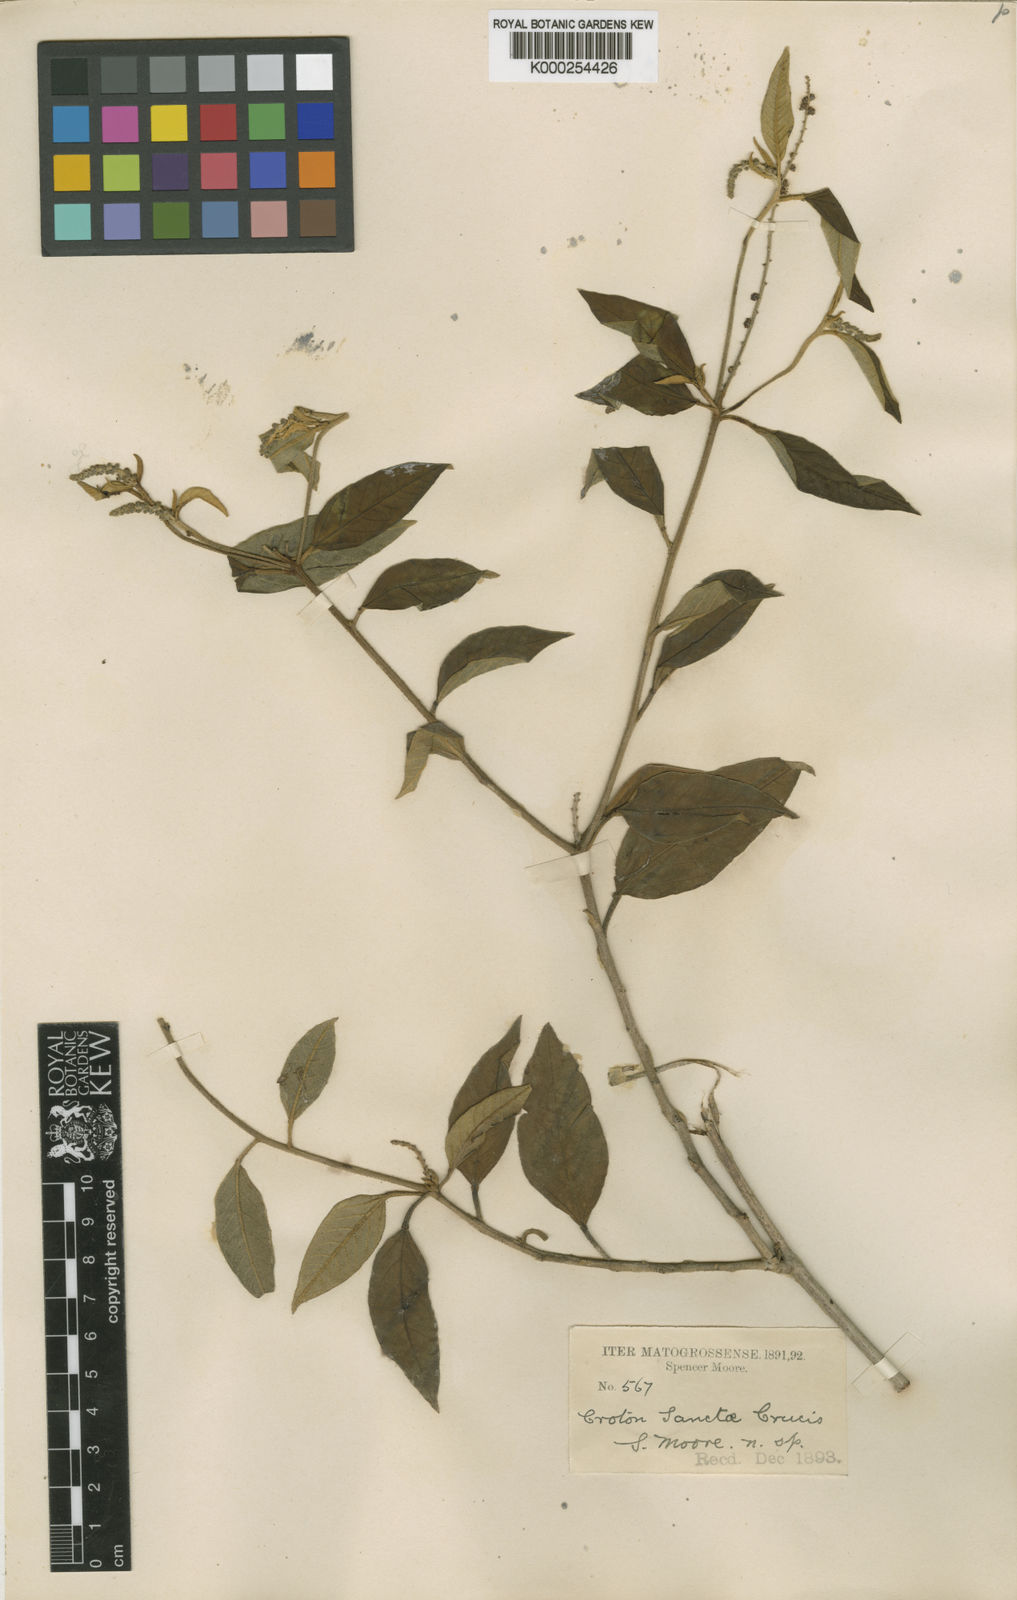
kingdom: Plantae
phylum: Tracheophyta
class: Magnoliopsida
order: Malpighiales
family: Euphorbiaceae
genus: Croton
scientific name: Croton sanctae-crucis
